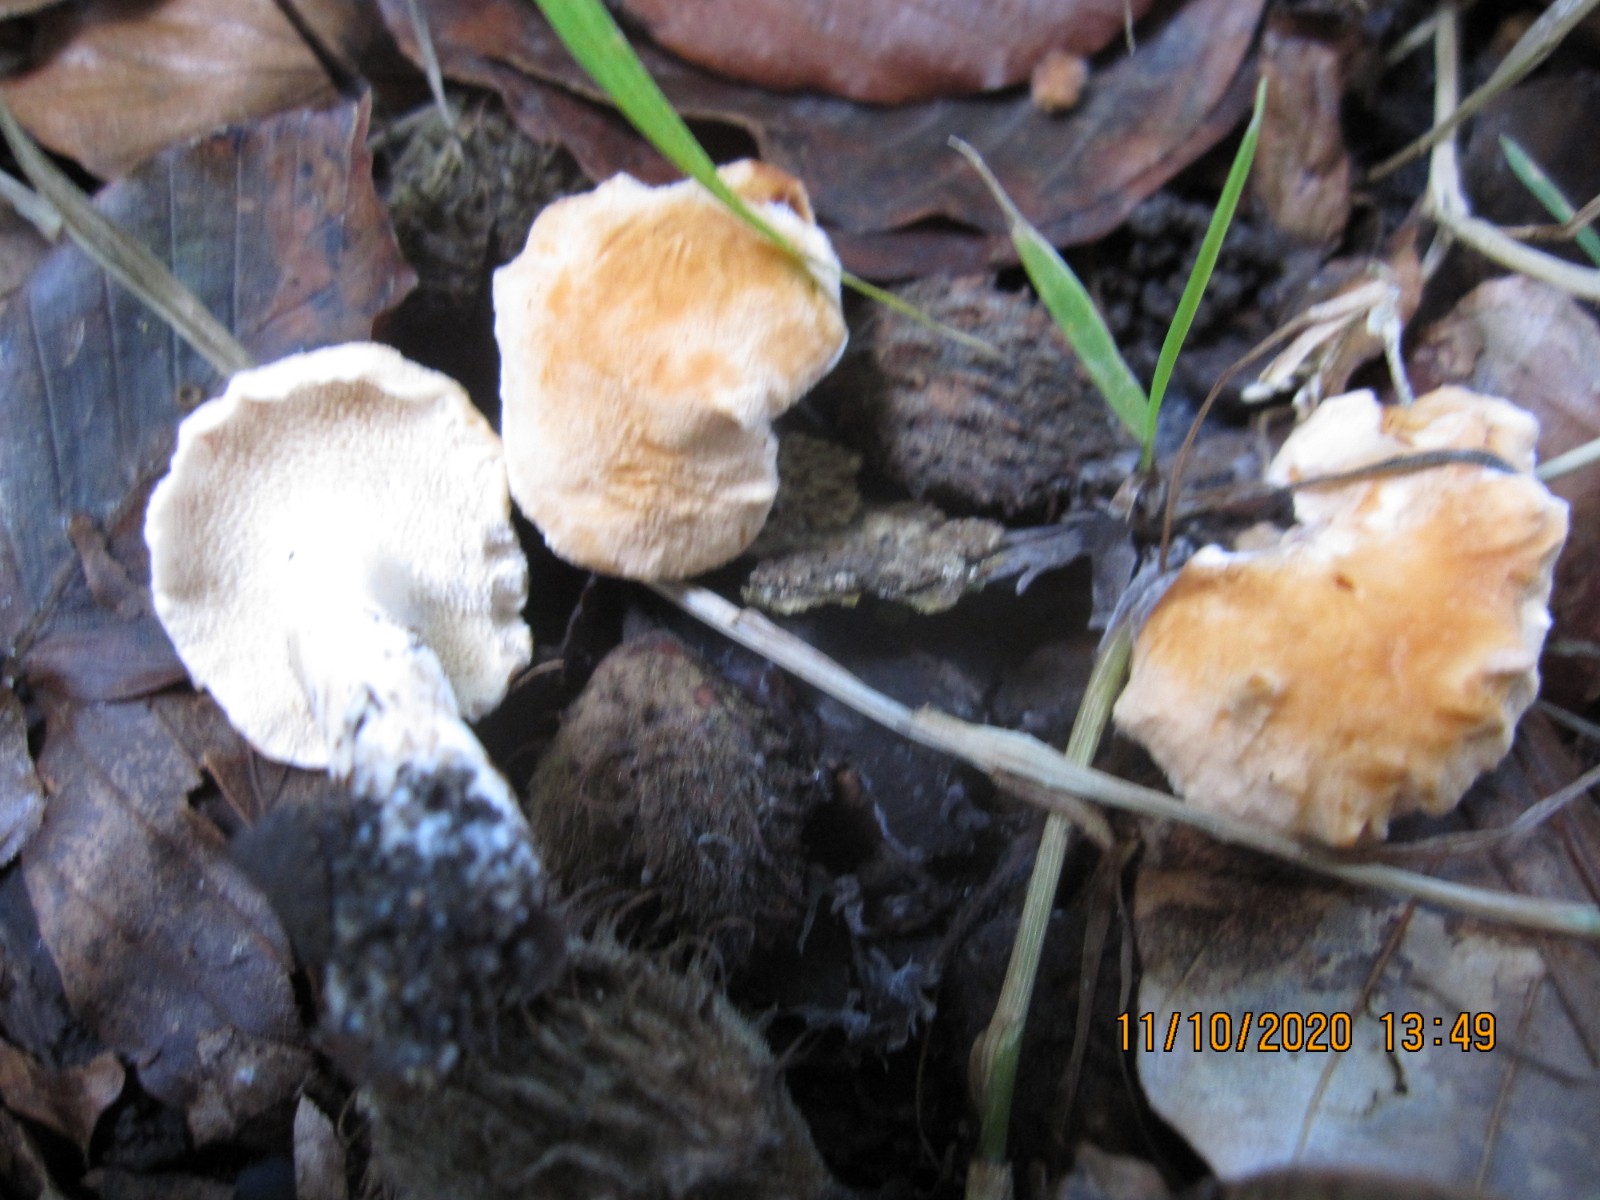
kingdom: Fungi
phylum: Basidiomycota
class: Agaricomycetes
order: Cantharellales
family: Hydnaceae
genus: Hydnum
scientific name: Hydnum subovoideisporum
